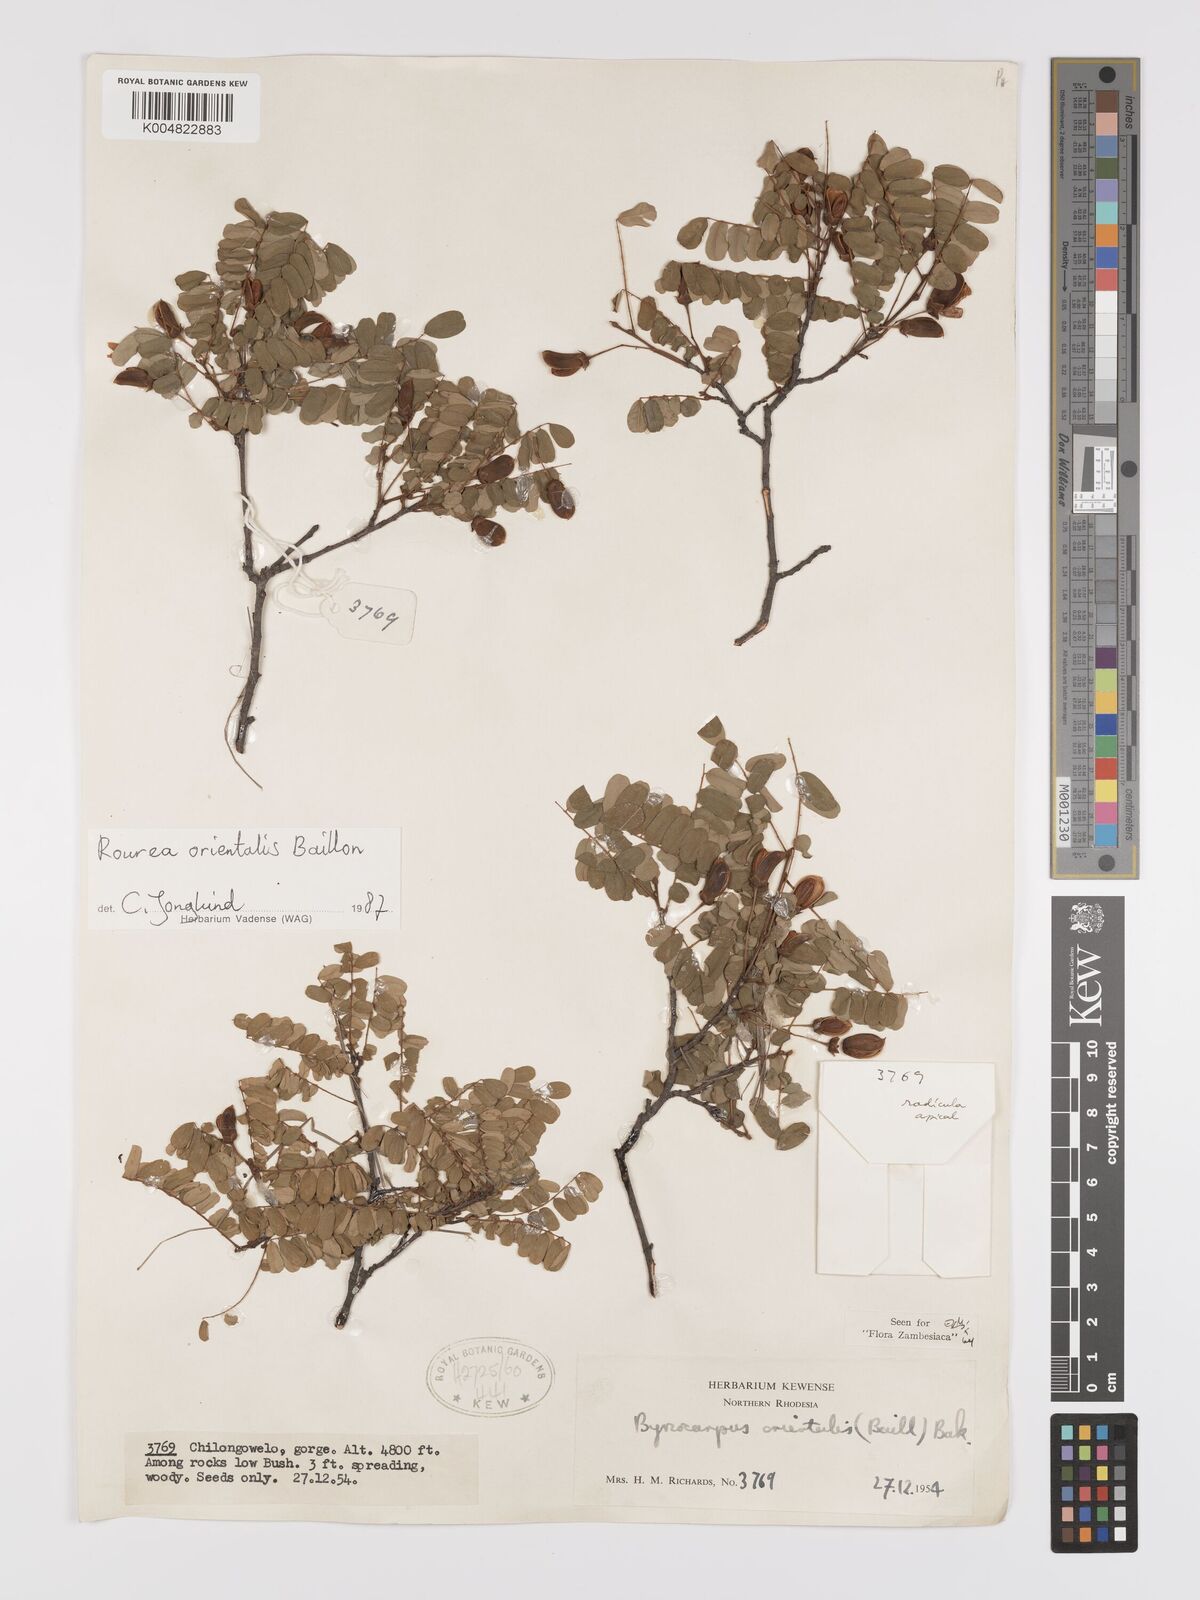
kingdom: Plantae
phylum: Tracheophyta
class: Magnoliopsida
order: Oxalidales
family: Connaraceae
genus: Rourea
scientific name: Rourea orientalis
